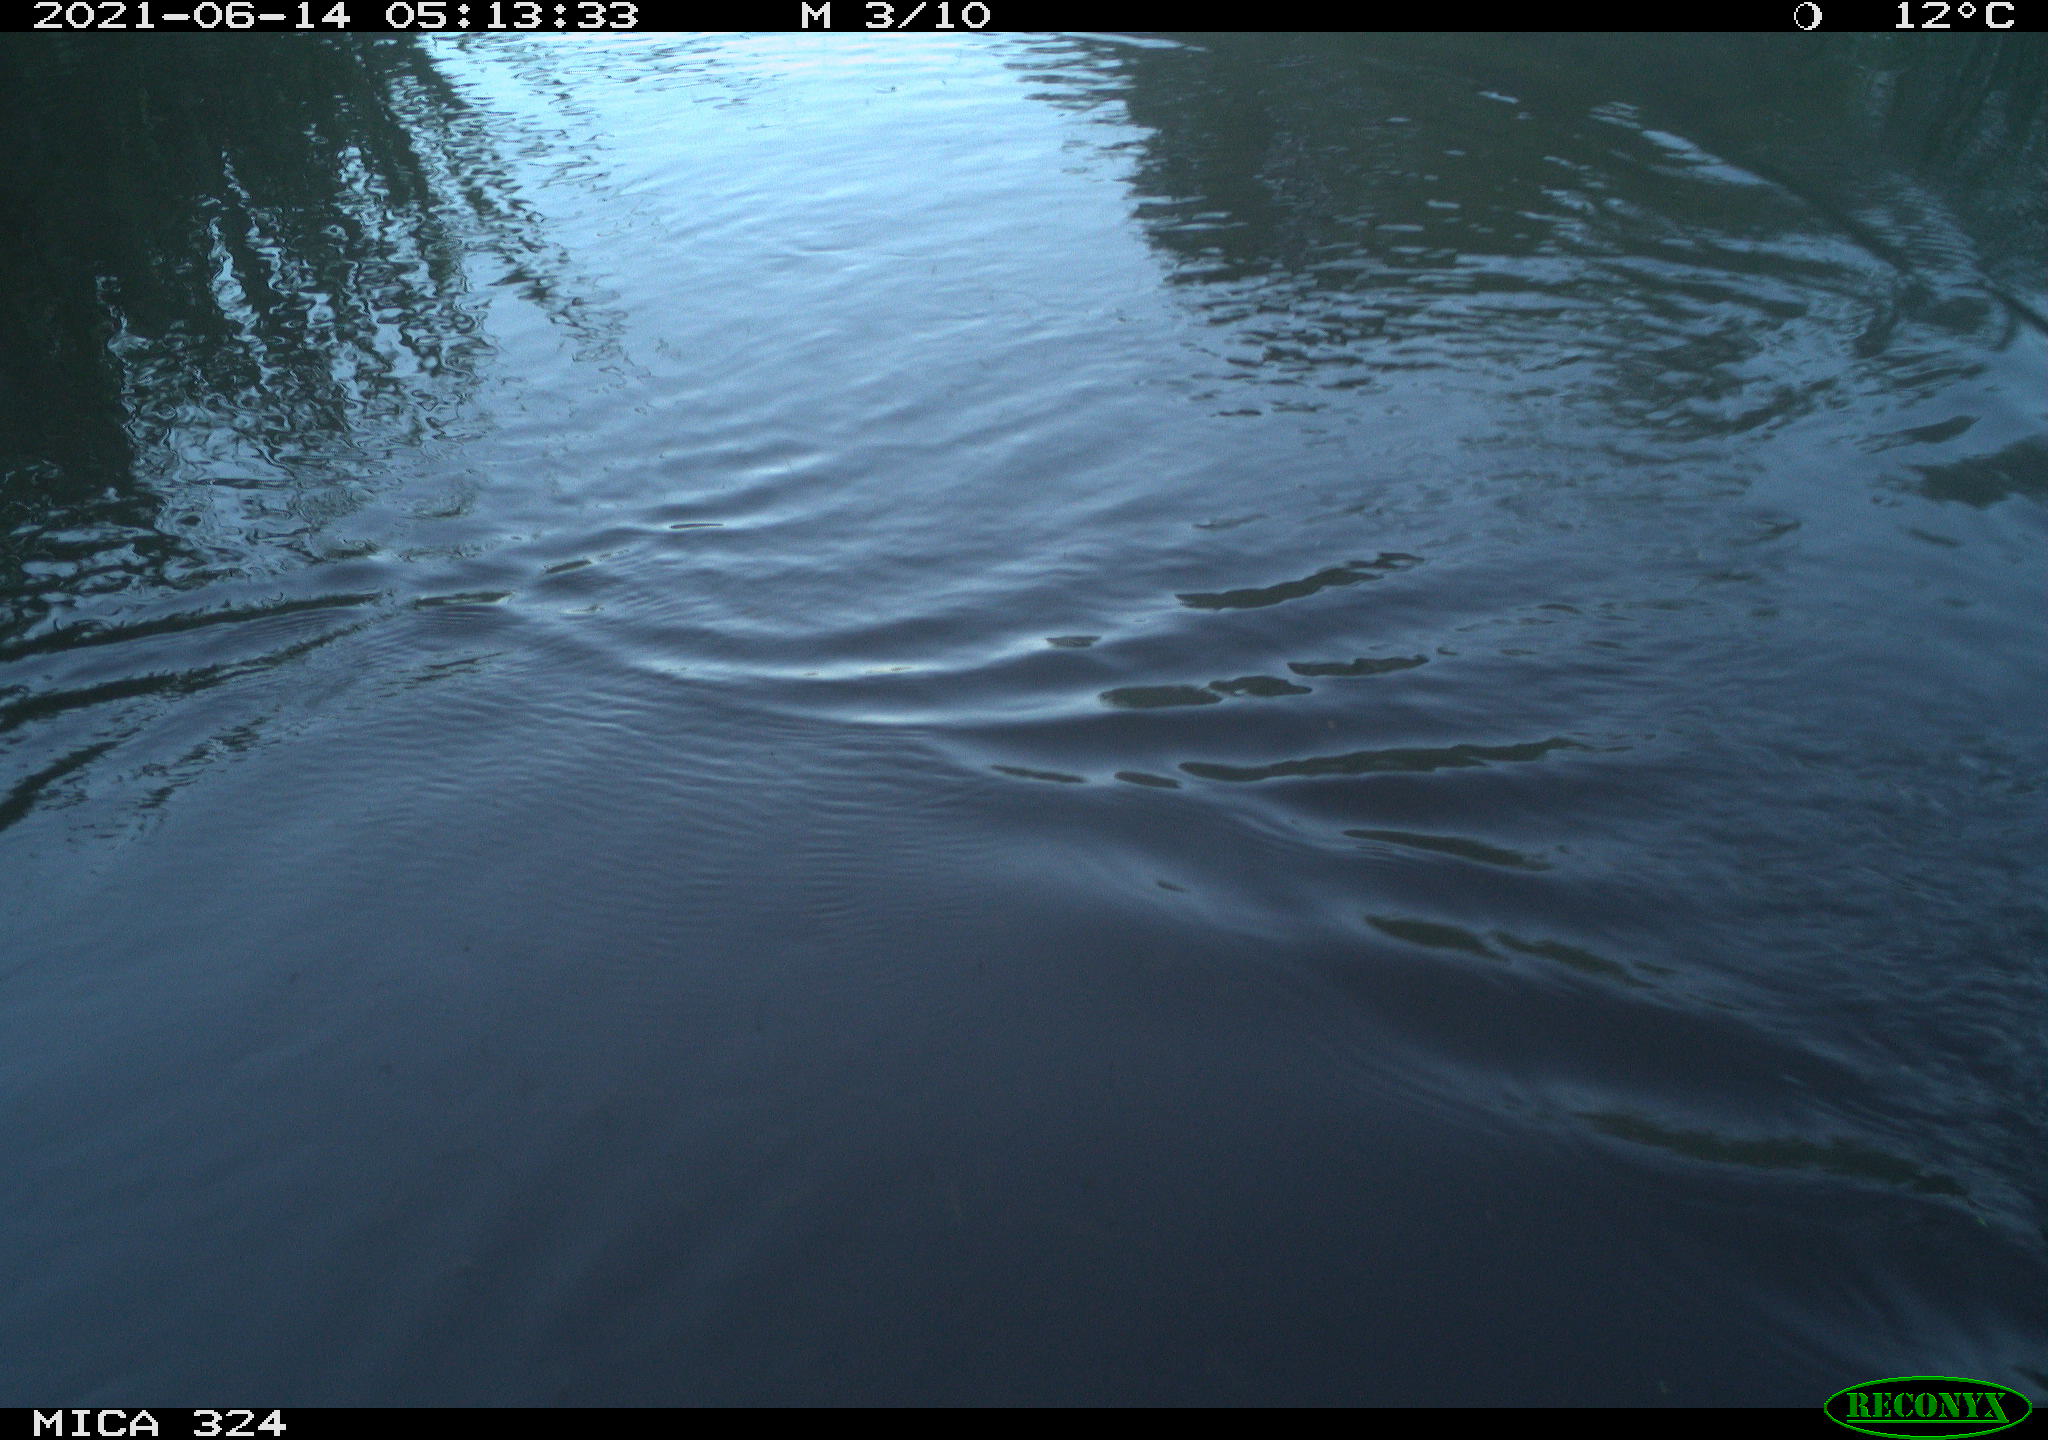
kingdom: Animalia
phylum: Chordata
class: Aves
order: Gruiformes
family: Rallidae
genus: Gallinula
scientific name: Gallinula chloropus
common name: Common moorhen
